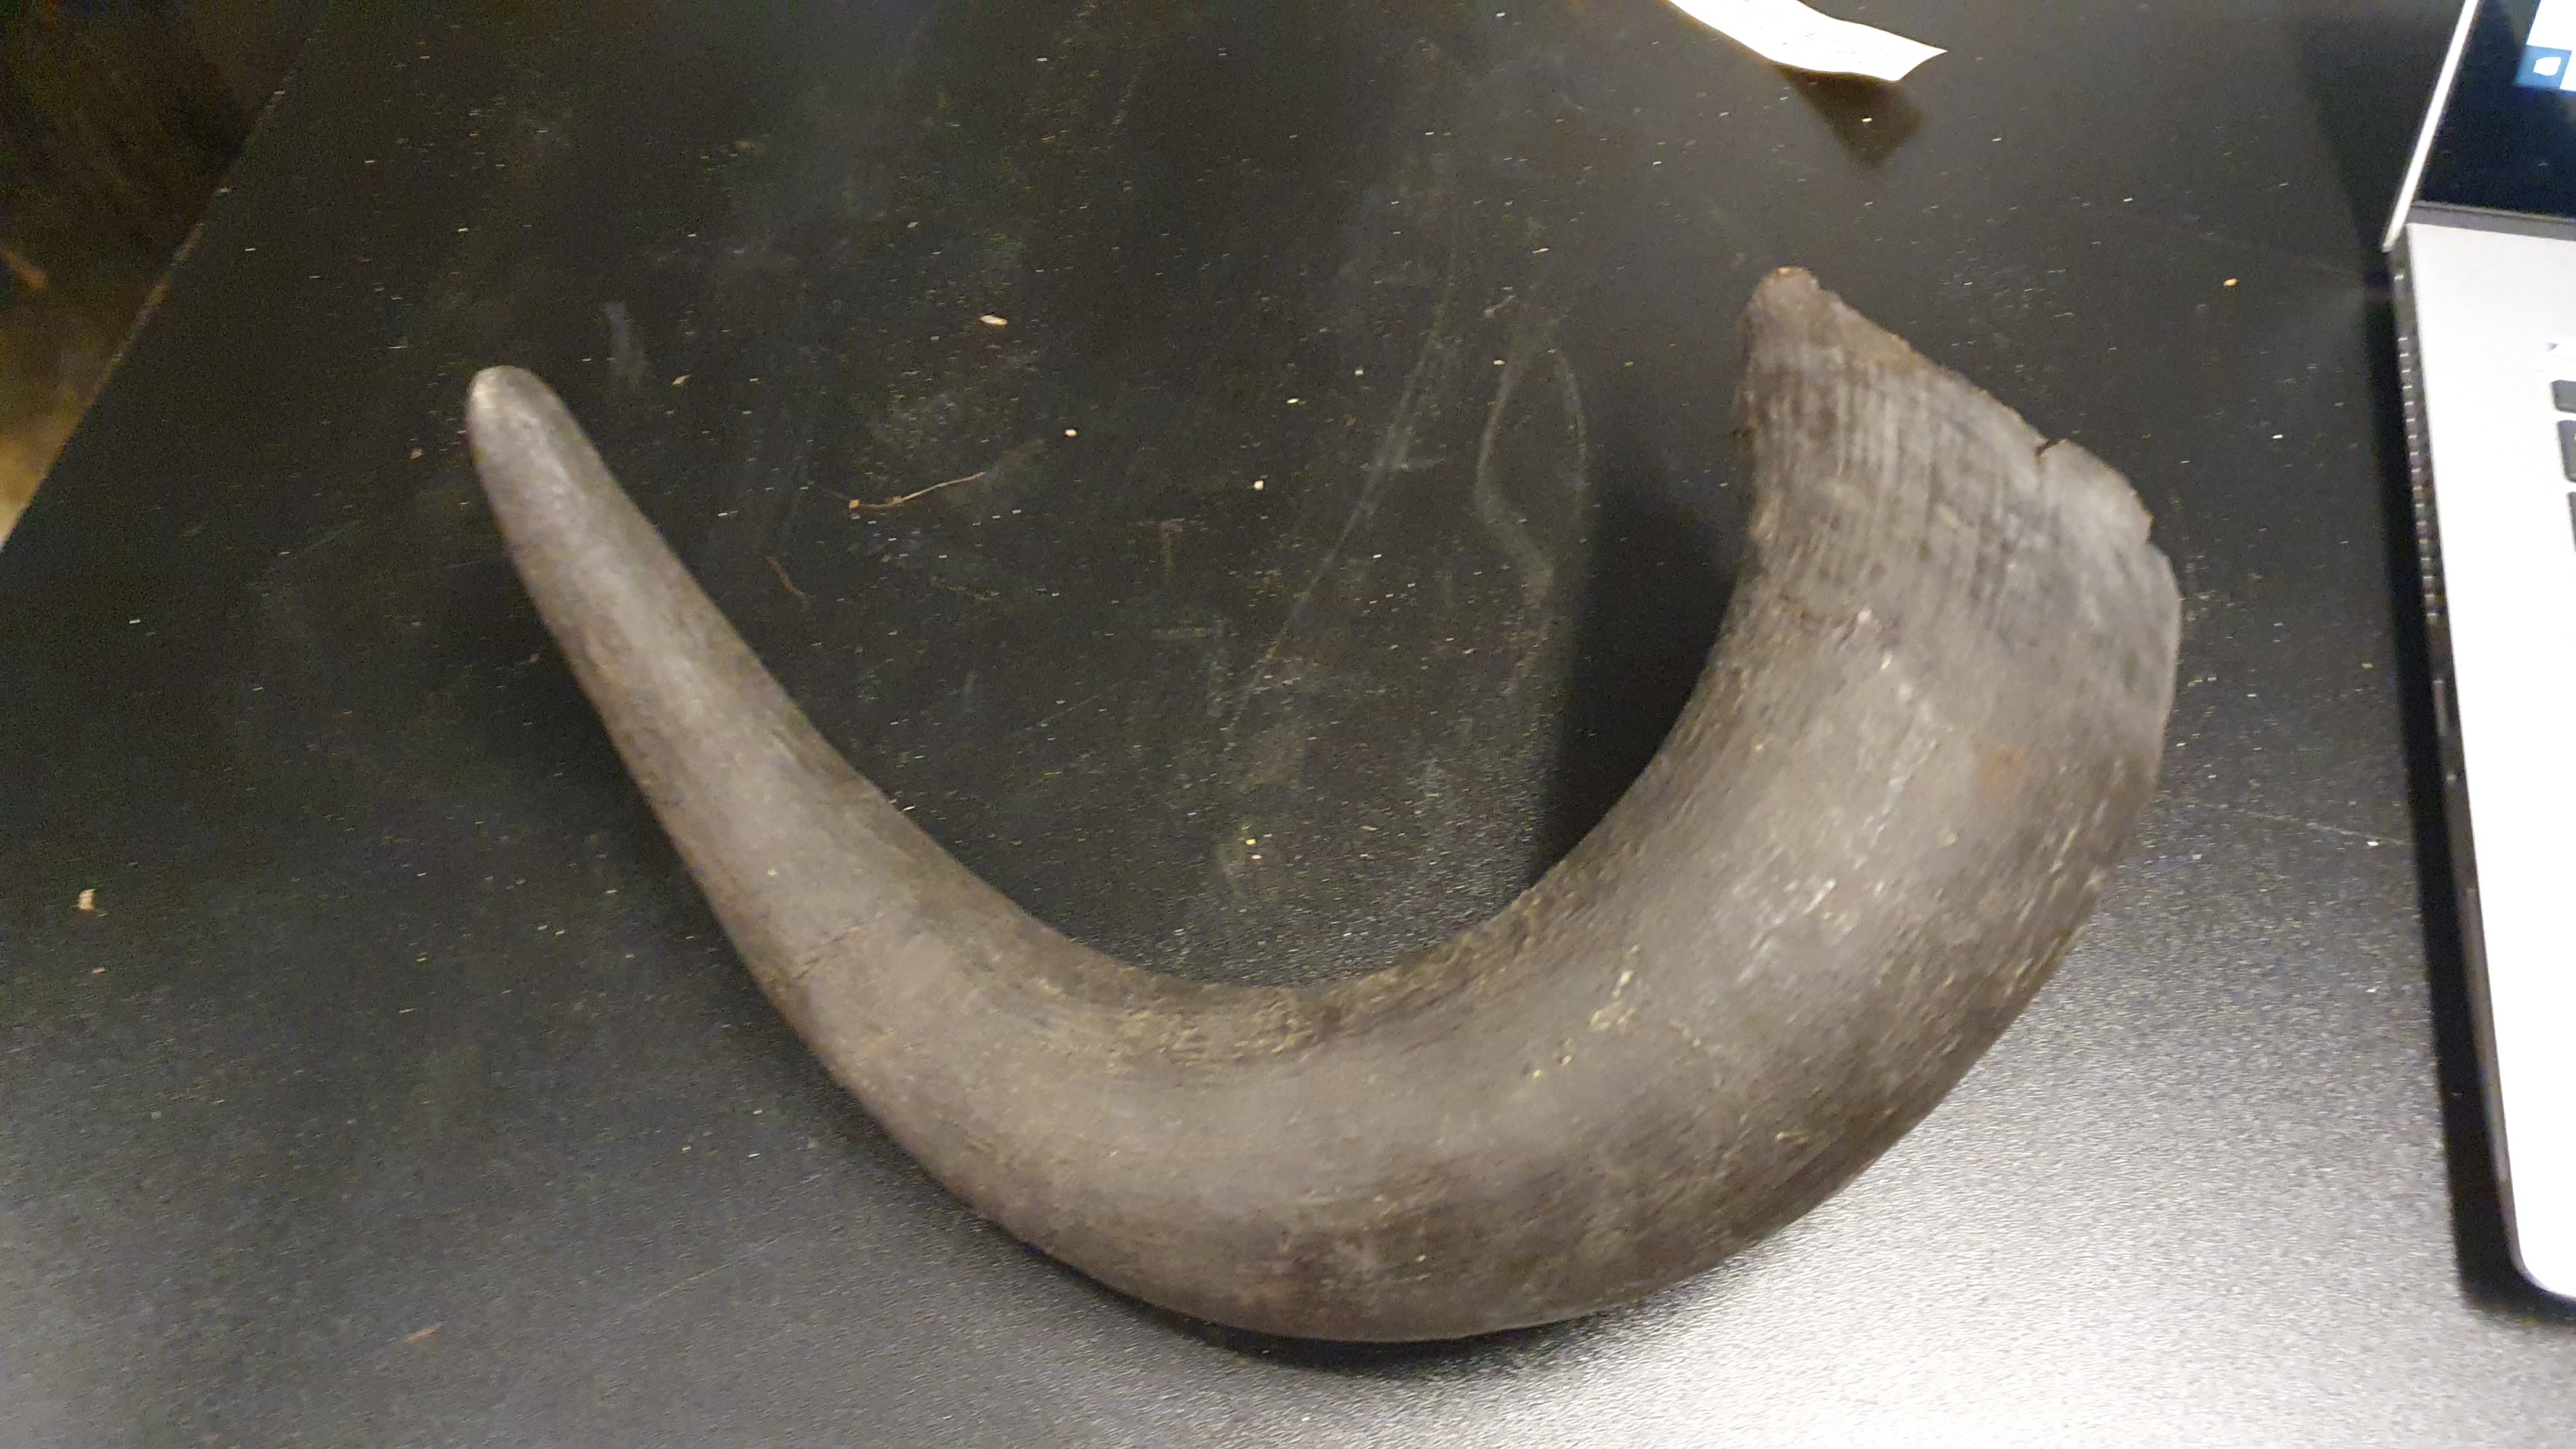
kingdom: Animalia
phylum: Chordata
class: Mammalia
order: Artiodactyla
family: Bovidae
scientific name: Bovidae
